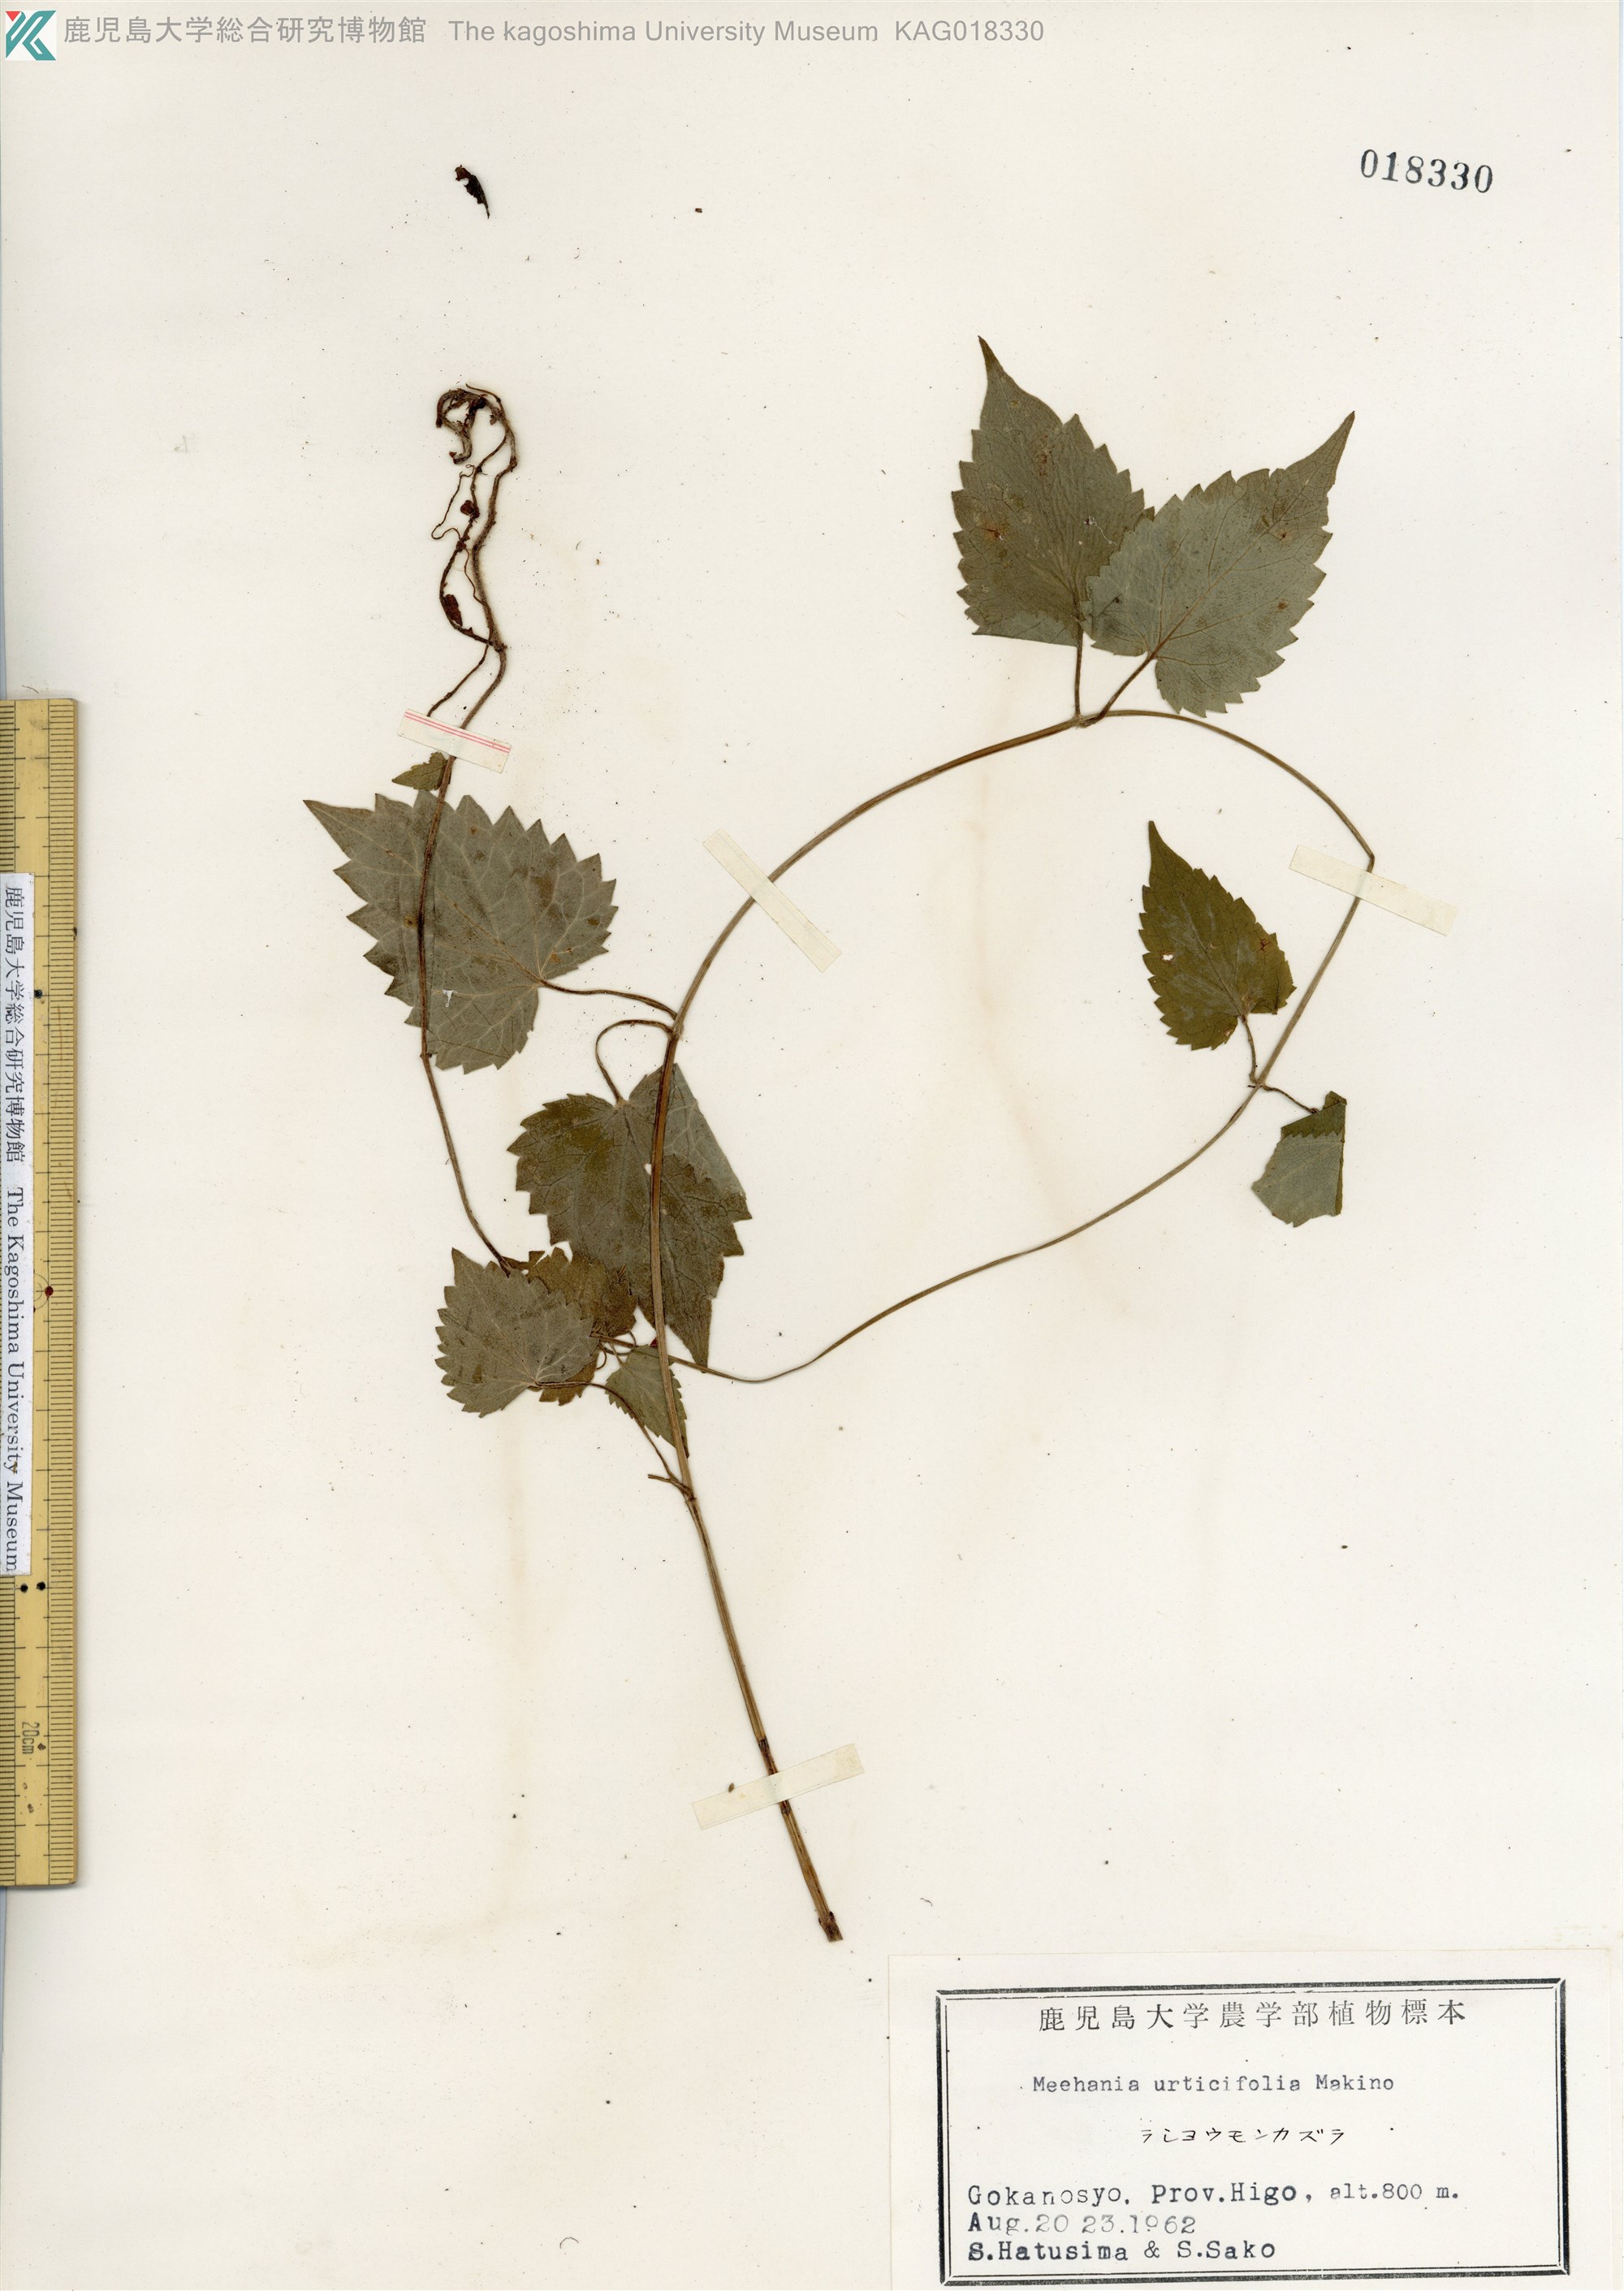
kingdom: Plantae
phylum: Tracheophyta
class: Magnoliopsida
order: Lamiales
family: Lamiaceae
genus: Meehania
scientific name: Meehania urticifolia
